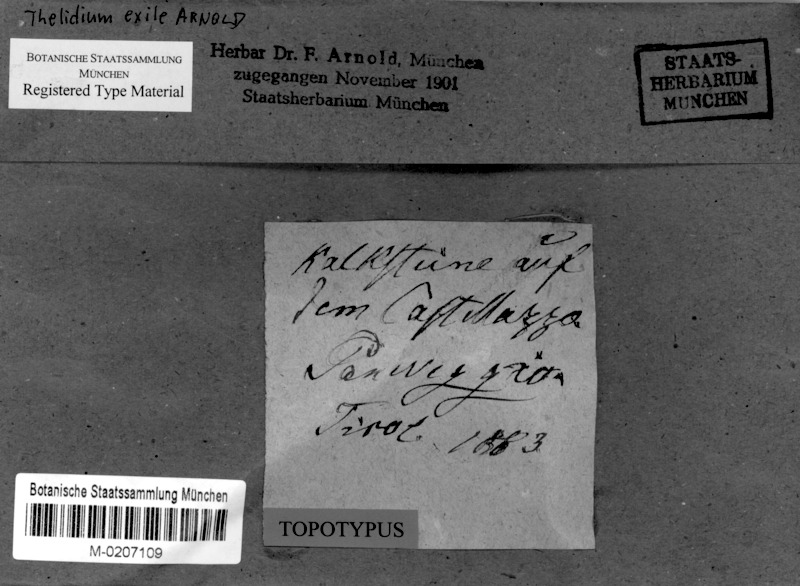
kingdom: Fungi
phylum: Ascomycota
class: Eurotiomycetes
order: Verrucariales
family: Verrucariaceae
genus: Thelidium
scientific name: Thelidium minutulum
